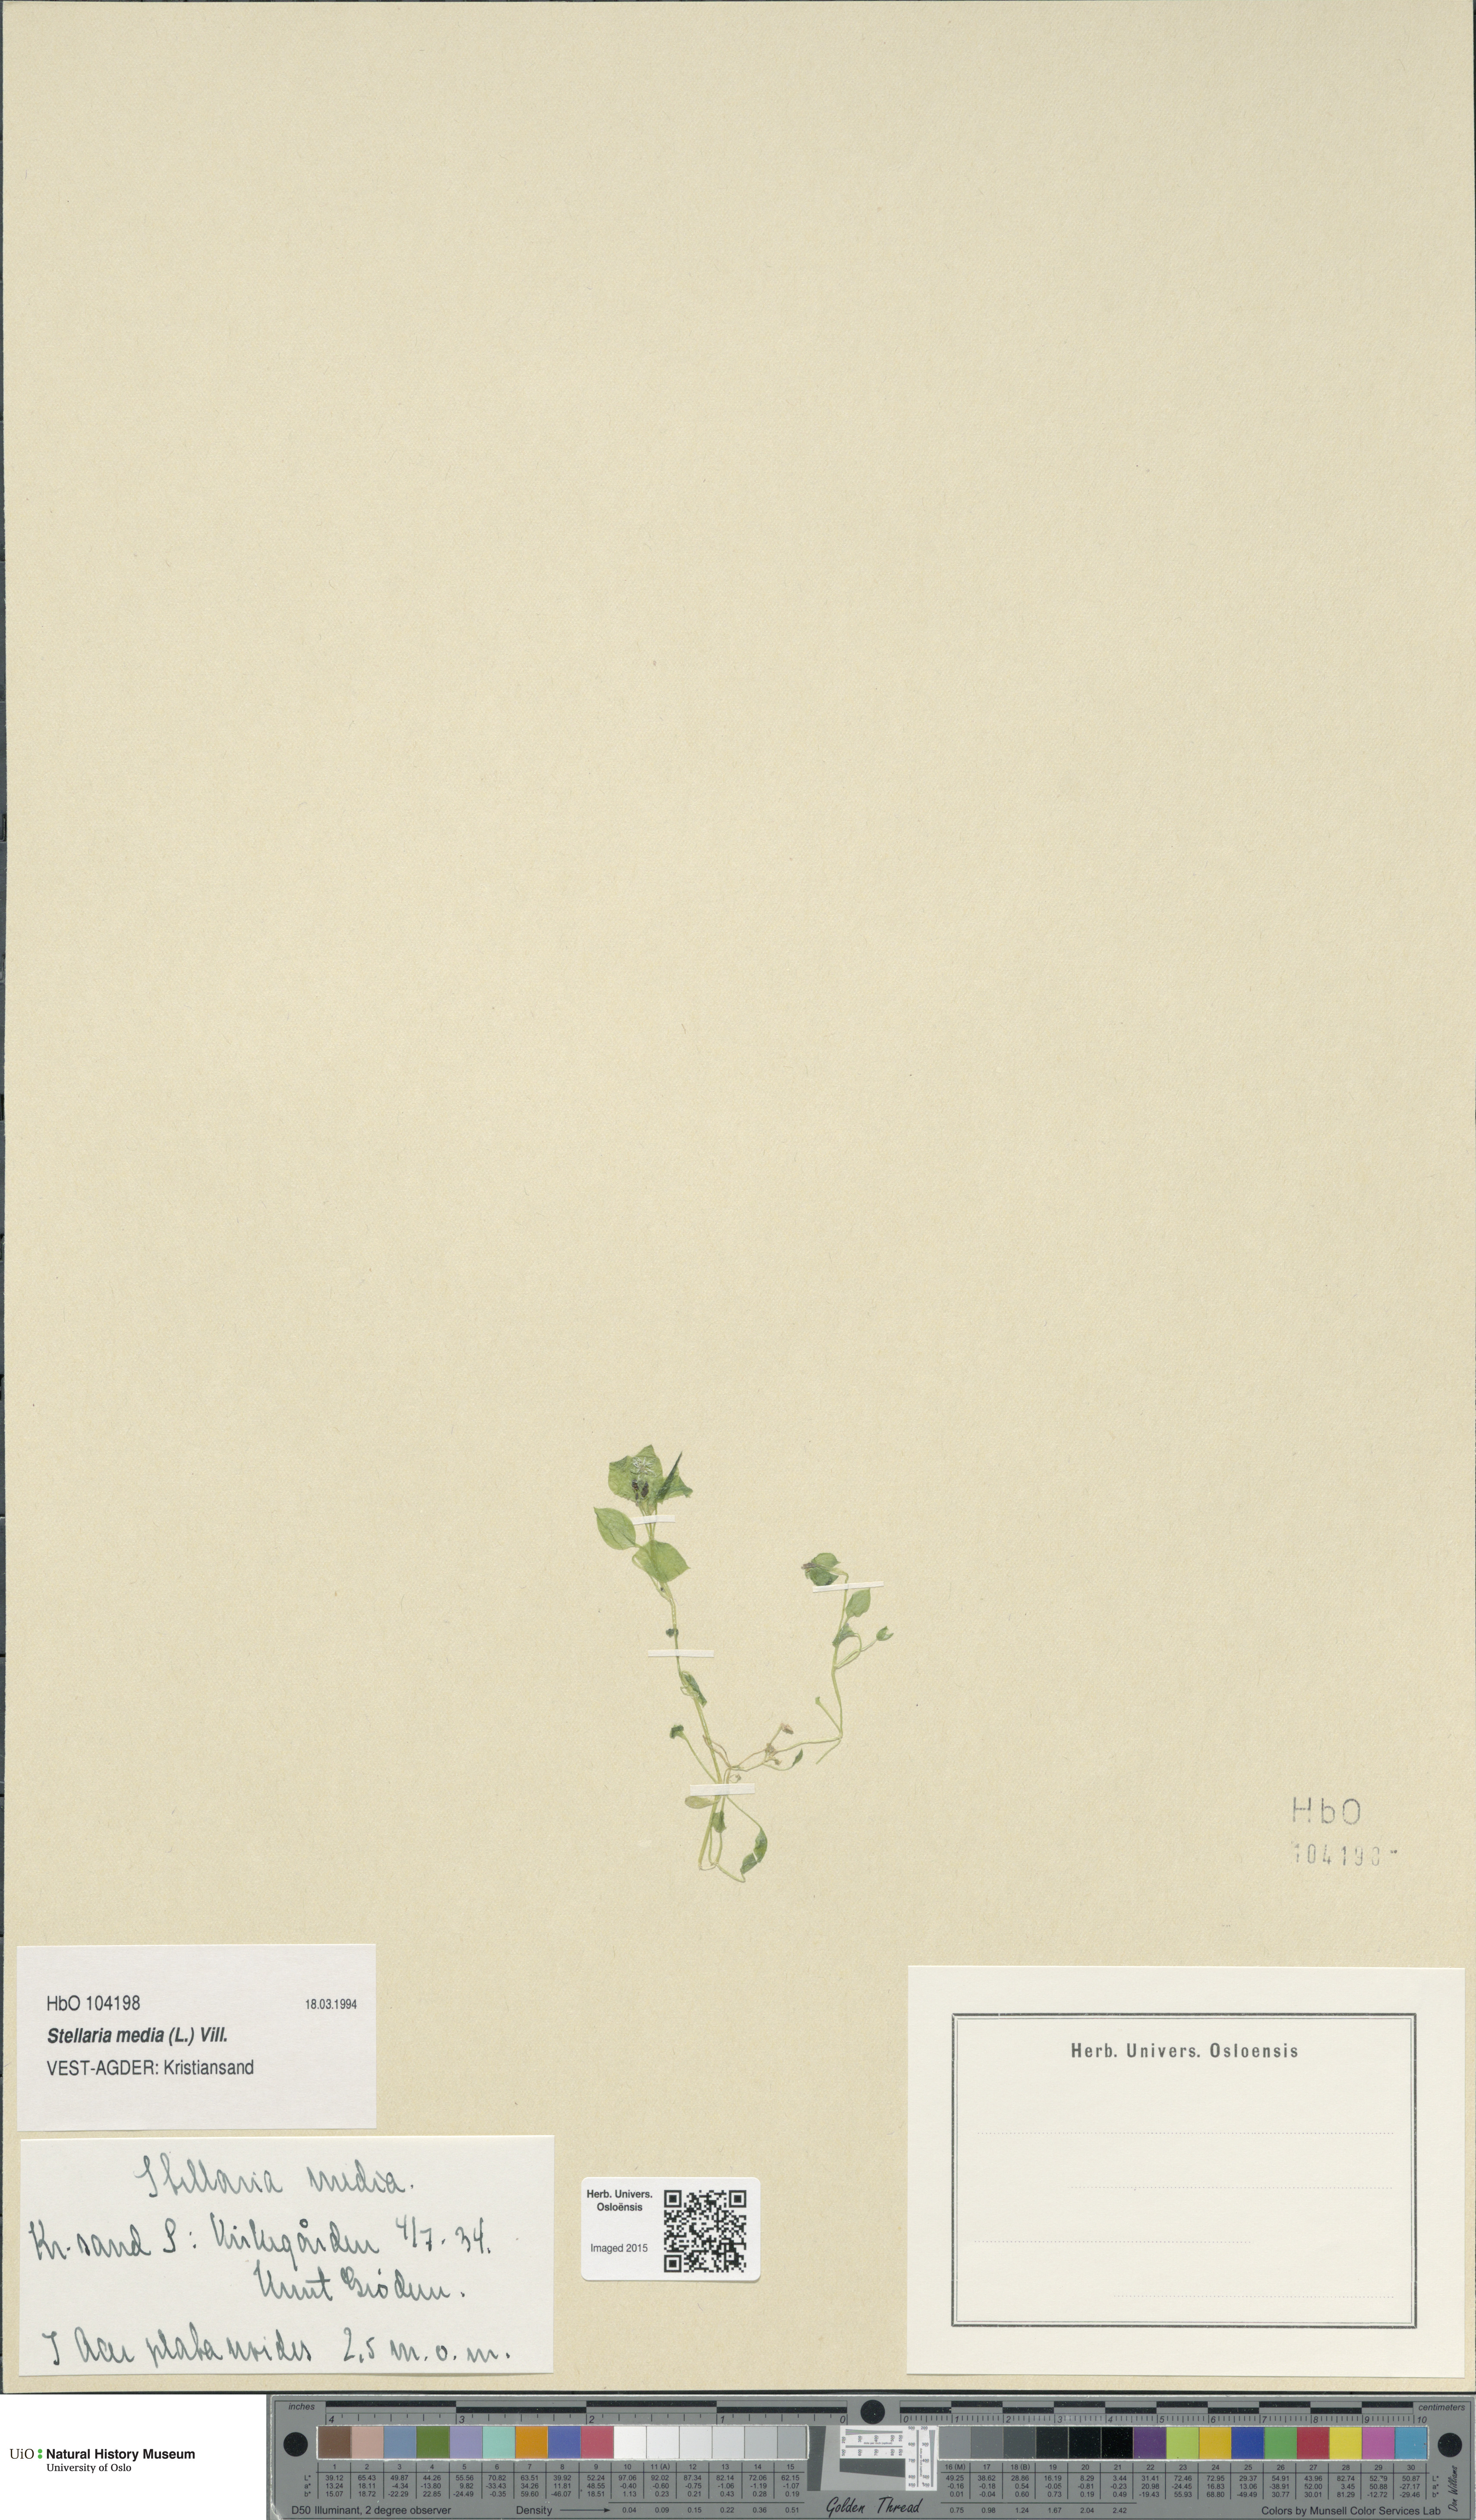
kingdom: Plantae
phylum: Tracheophyta
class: Magnoliopsida
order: Caryophyllales
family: Caryophyllaceae
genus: Stellaria
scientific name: Stellaria media
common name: Common chickweed
